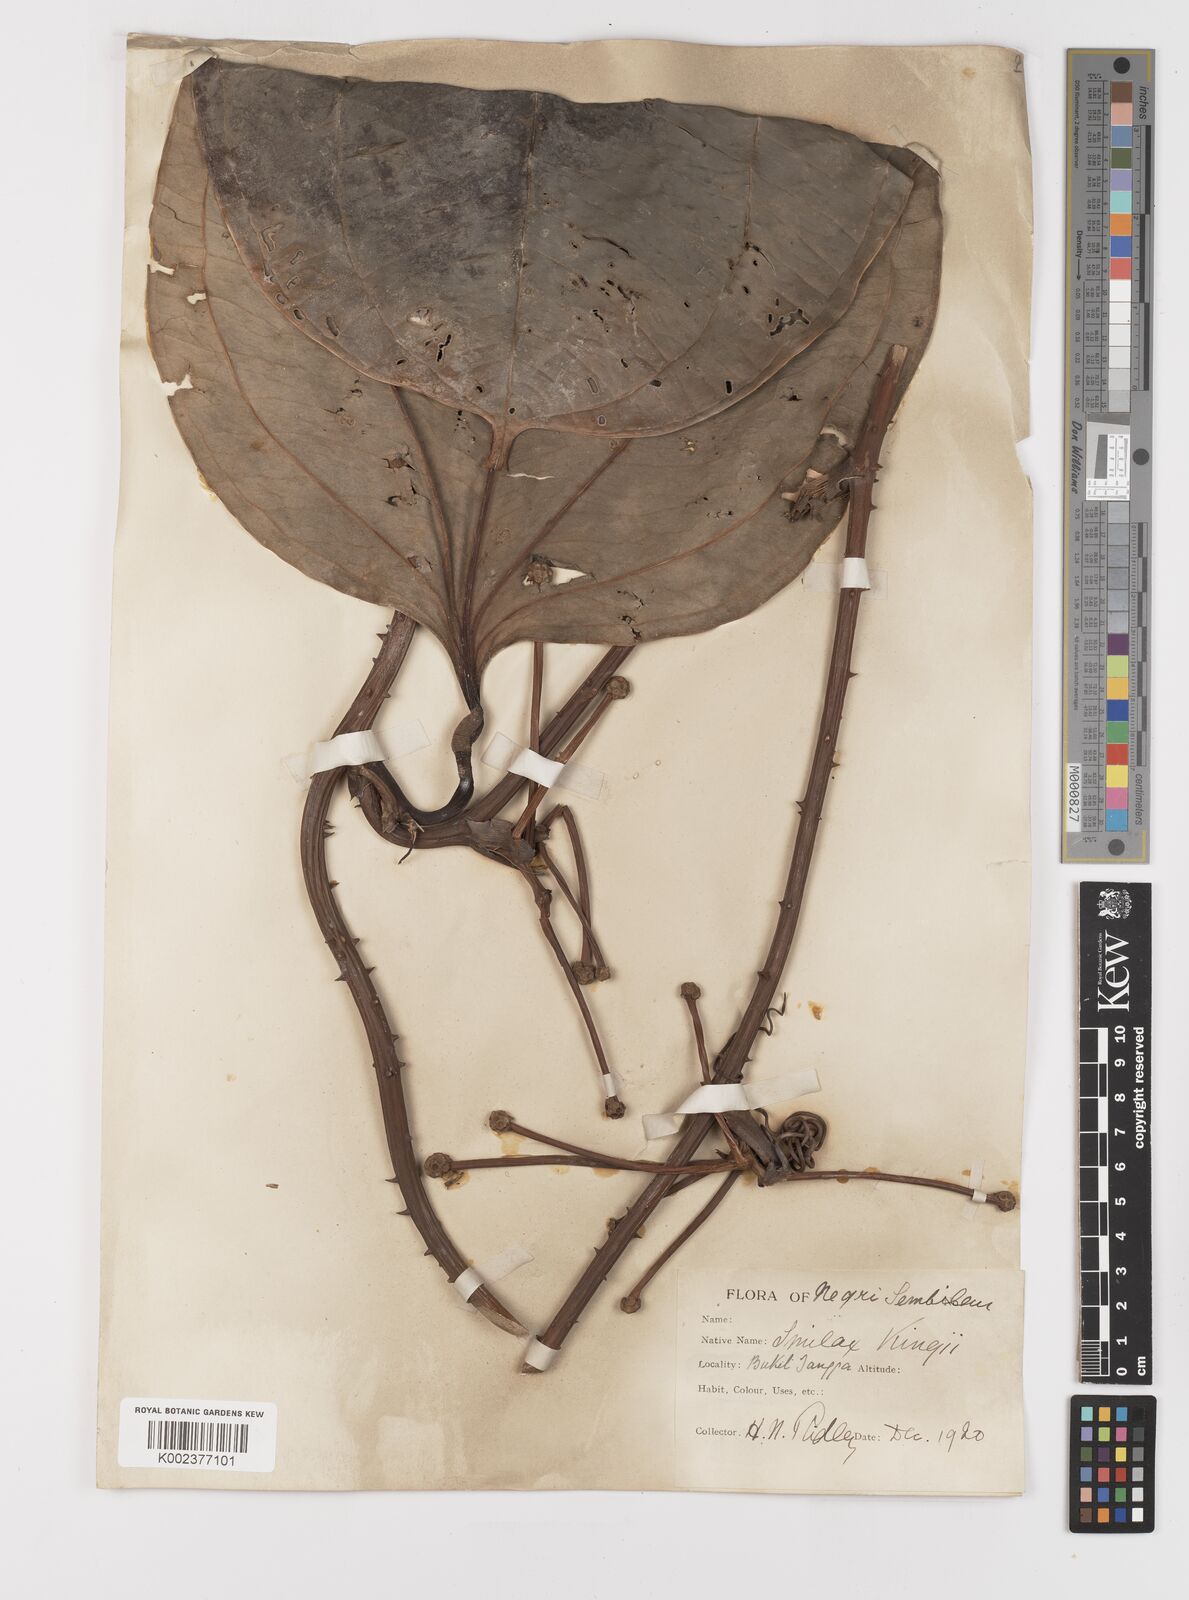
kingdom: Plantae
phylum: Tracheophyta
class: Liliopsida
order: Liliales
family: Smilacaceae
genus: Smilax
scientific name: Smilax kingii
